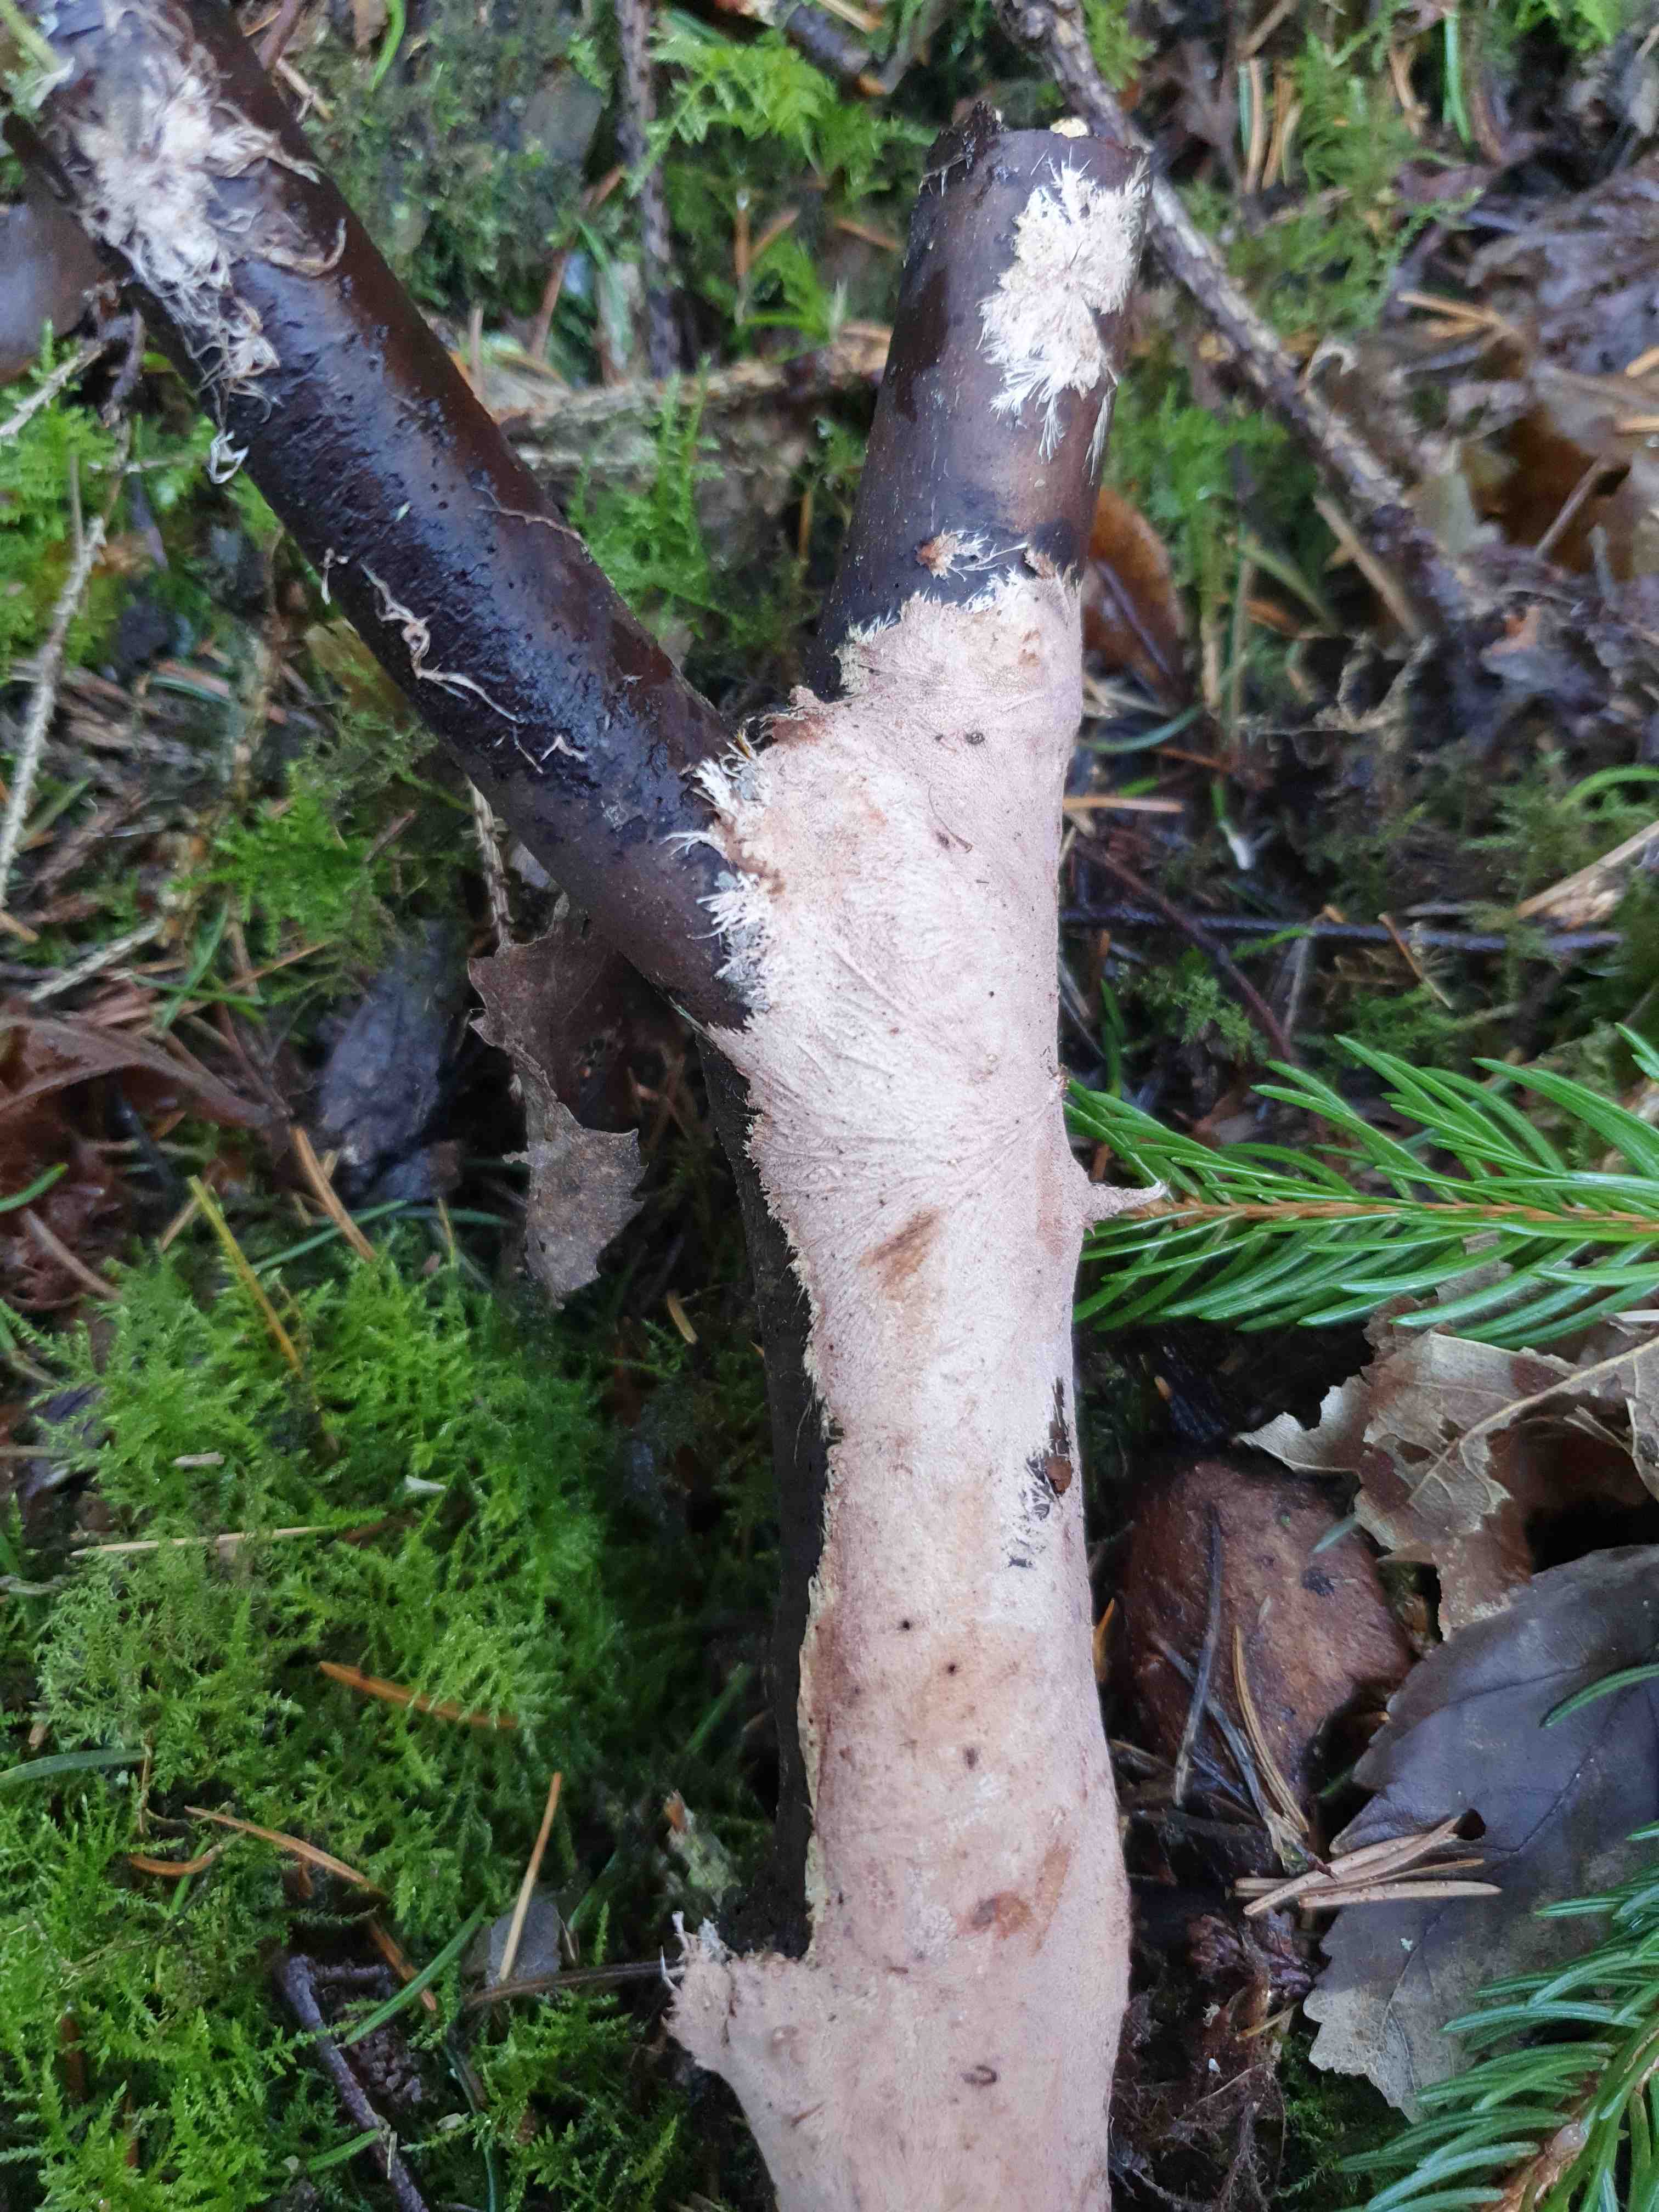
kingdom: Fungi
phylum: Basidiomycota
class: Agaricomycetes
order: Polyporales
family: Steccherinaceae
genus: Steccherinum
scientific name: Steccherinum fimbriatum
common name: trådet skønpig
